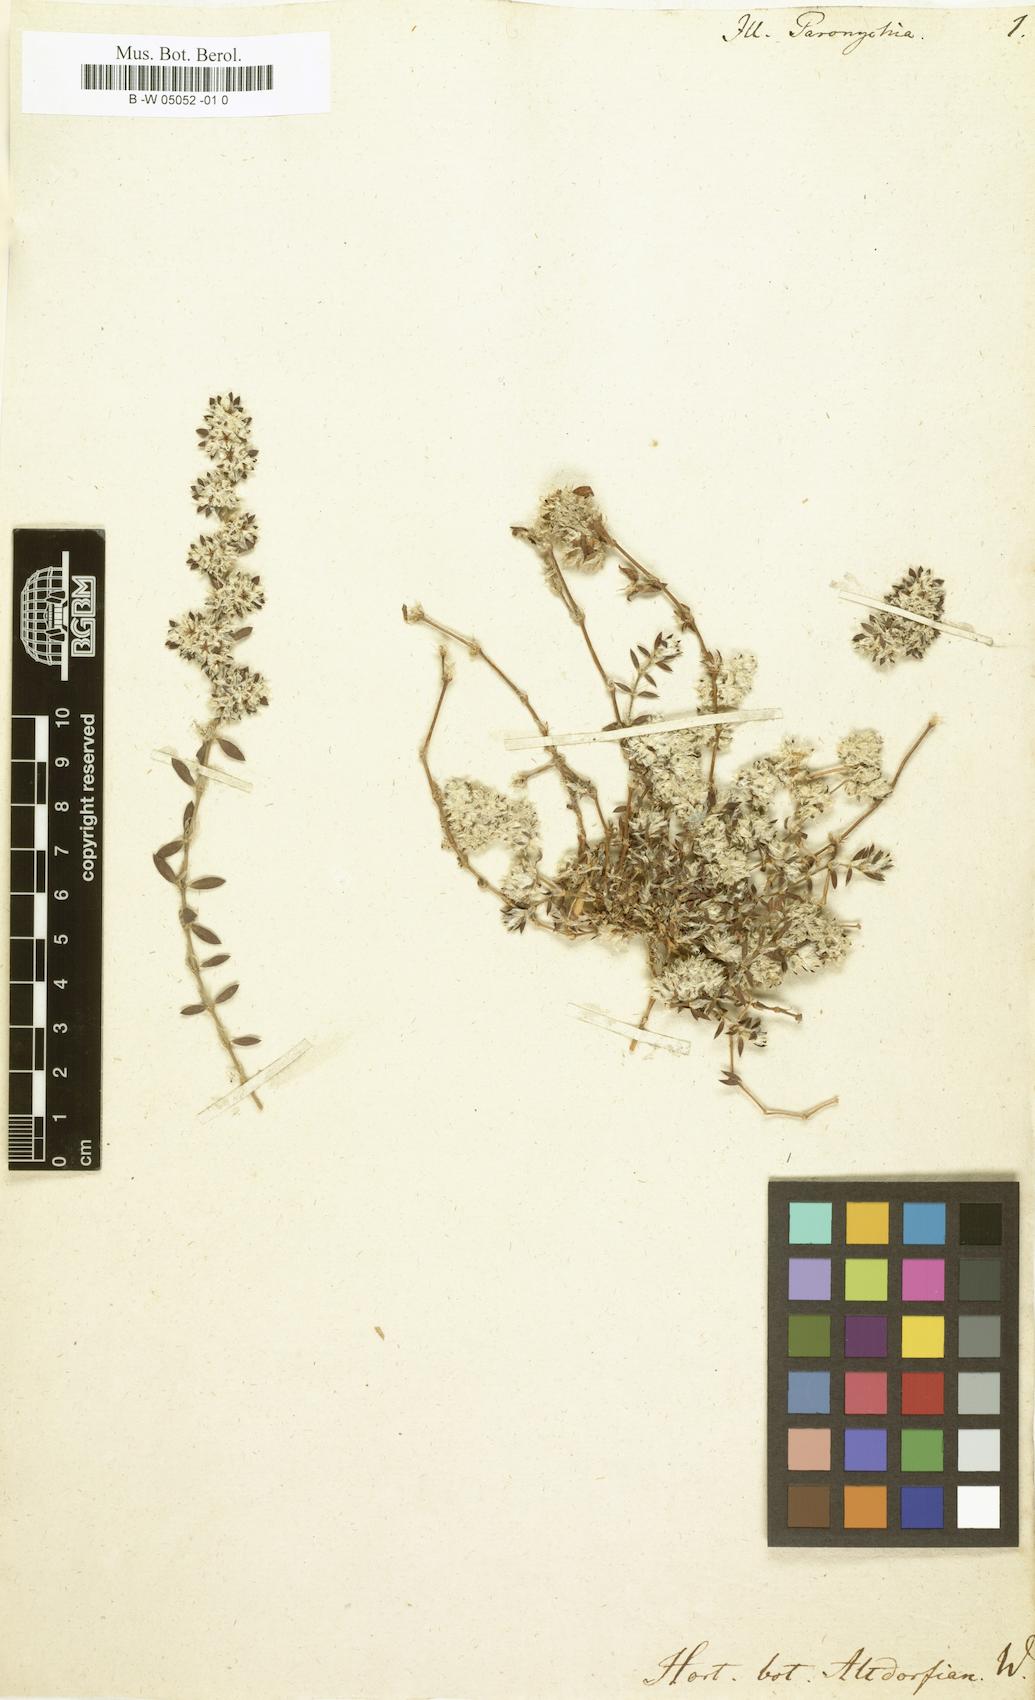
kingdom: Plantae
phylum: Tracheophyta
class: Magnoliopsida
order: Caryophyllales
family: Caryophyllaceae
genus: Paronychia
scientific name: Paronychia argentea
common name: Silver nailroot
